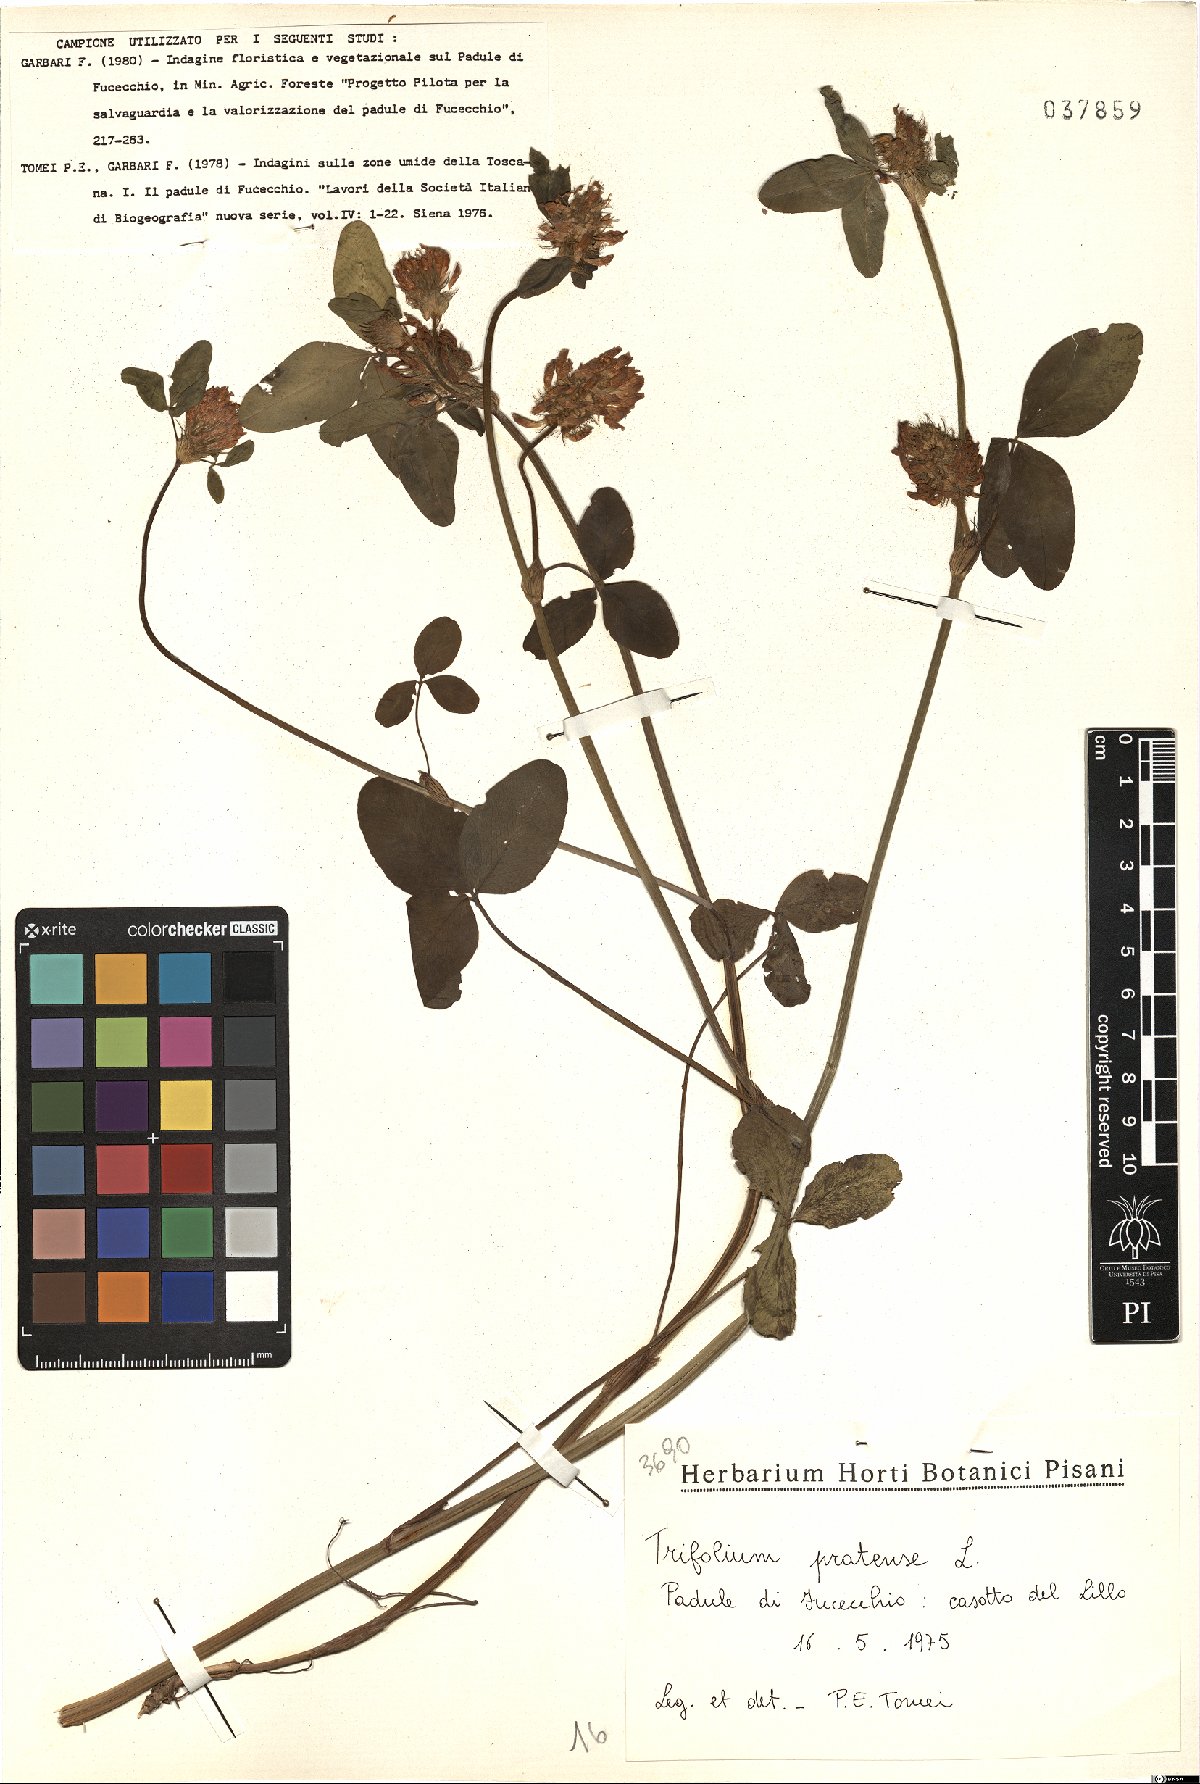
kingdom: Plantae
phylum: Tracheophyta
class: Magnoliopsida
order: Fabales
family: Fabaceae
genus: Trifolium
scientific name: Trifolium pratense
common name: Red clover
